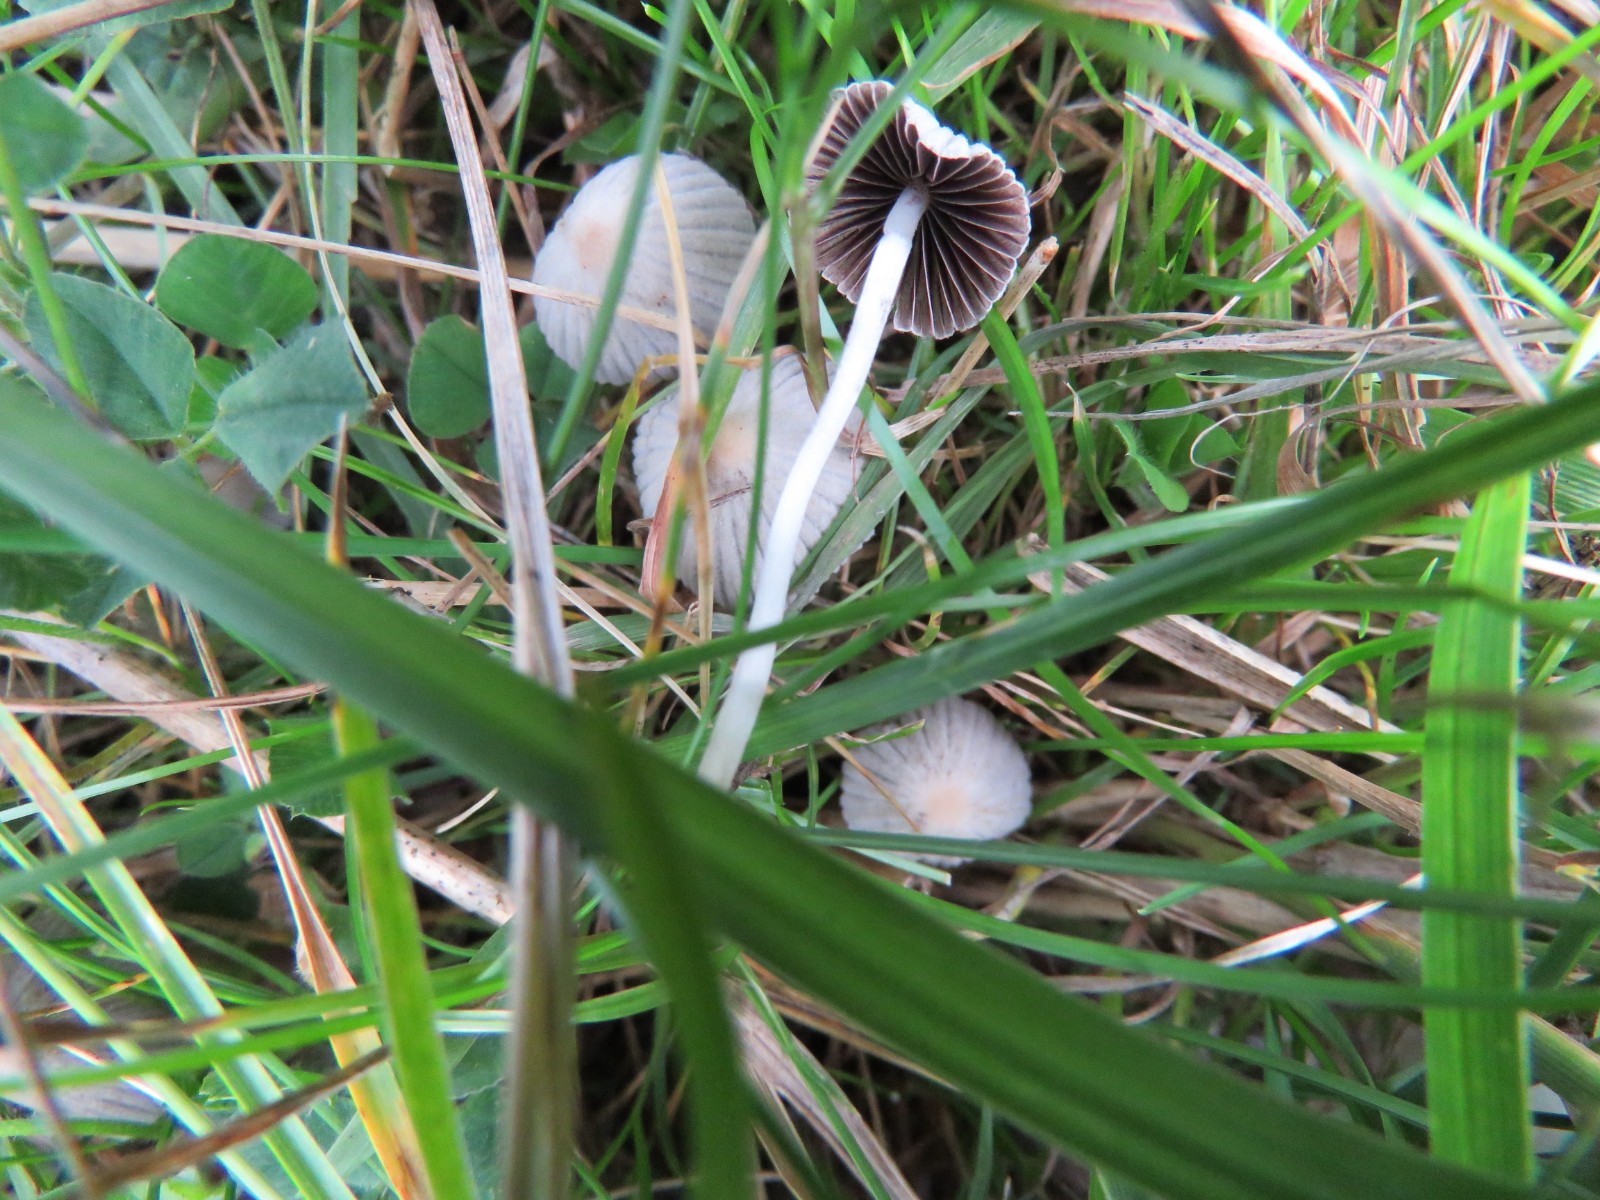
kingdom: Fungi
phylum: Basidiomycota
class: Agaricomycetes
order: Agaricales
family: Psathyrellaceae
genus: Coprinellus
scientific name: Coprinellus disseminatus
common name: bredsået blækhat
